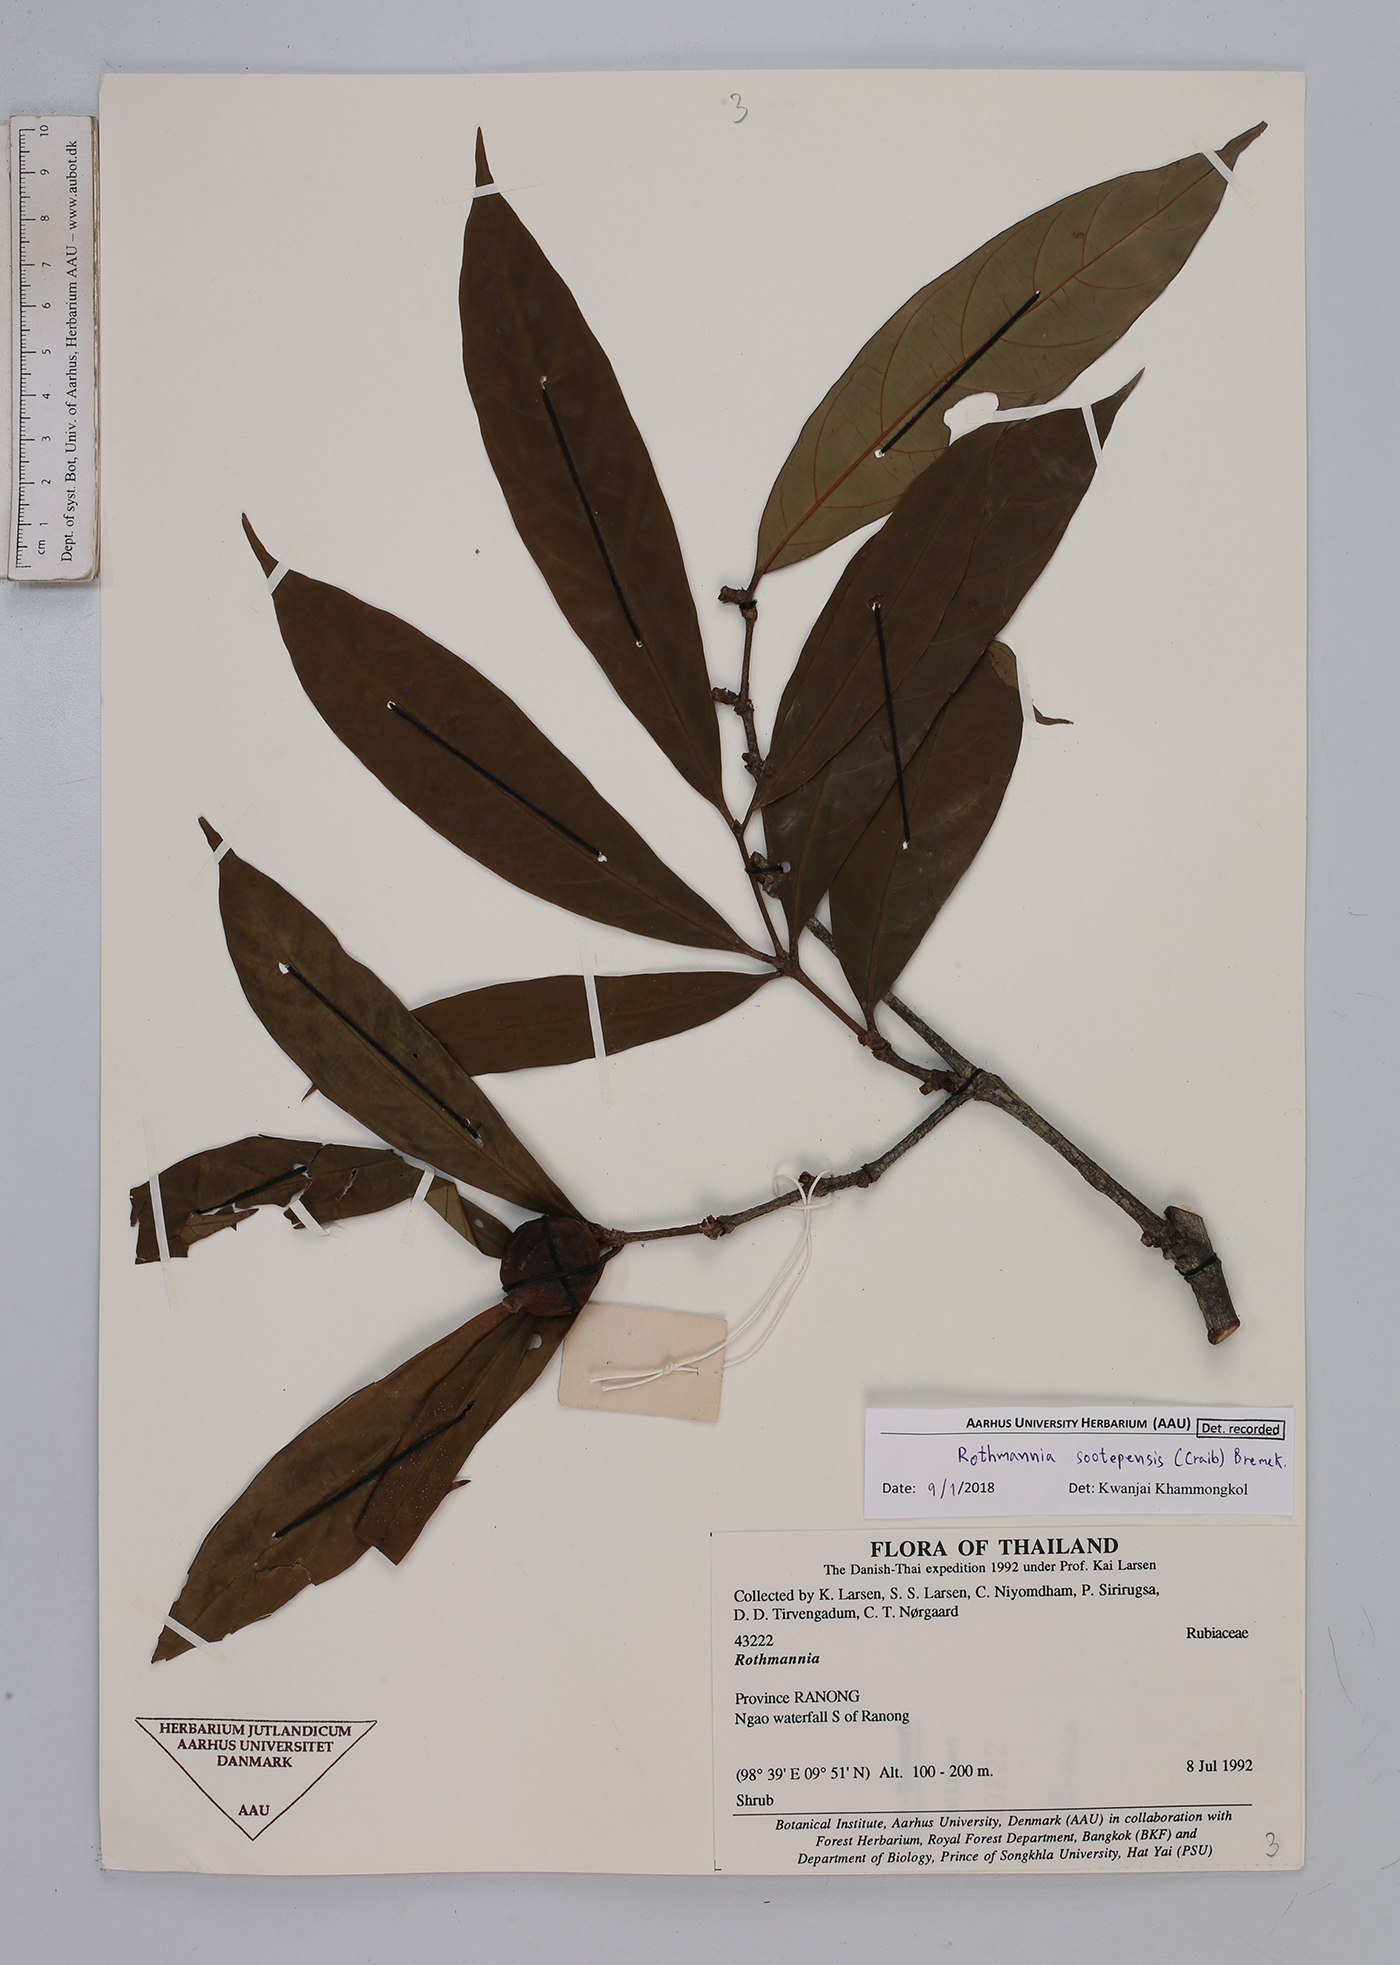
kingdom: Plantae
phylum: Tracheophyta
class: Magnoliopsida
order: Gentianales
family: Rubiaceae
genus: Ridsdalea
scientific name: Ridsdalea sootepensis
